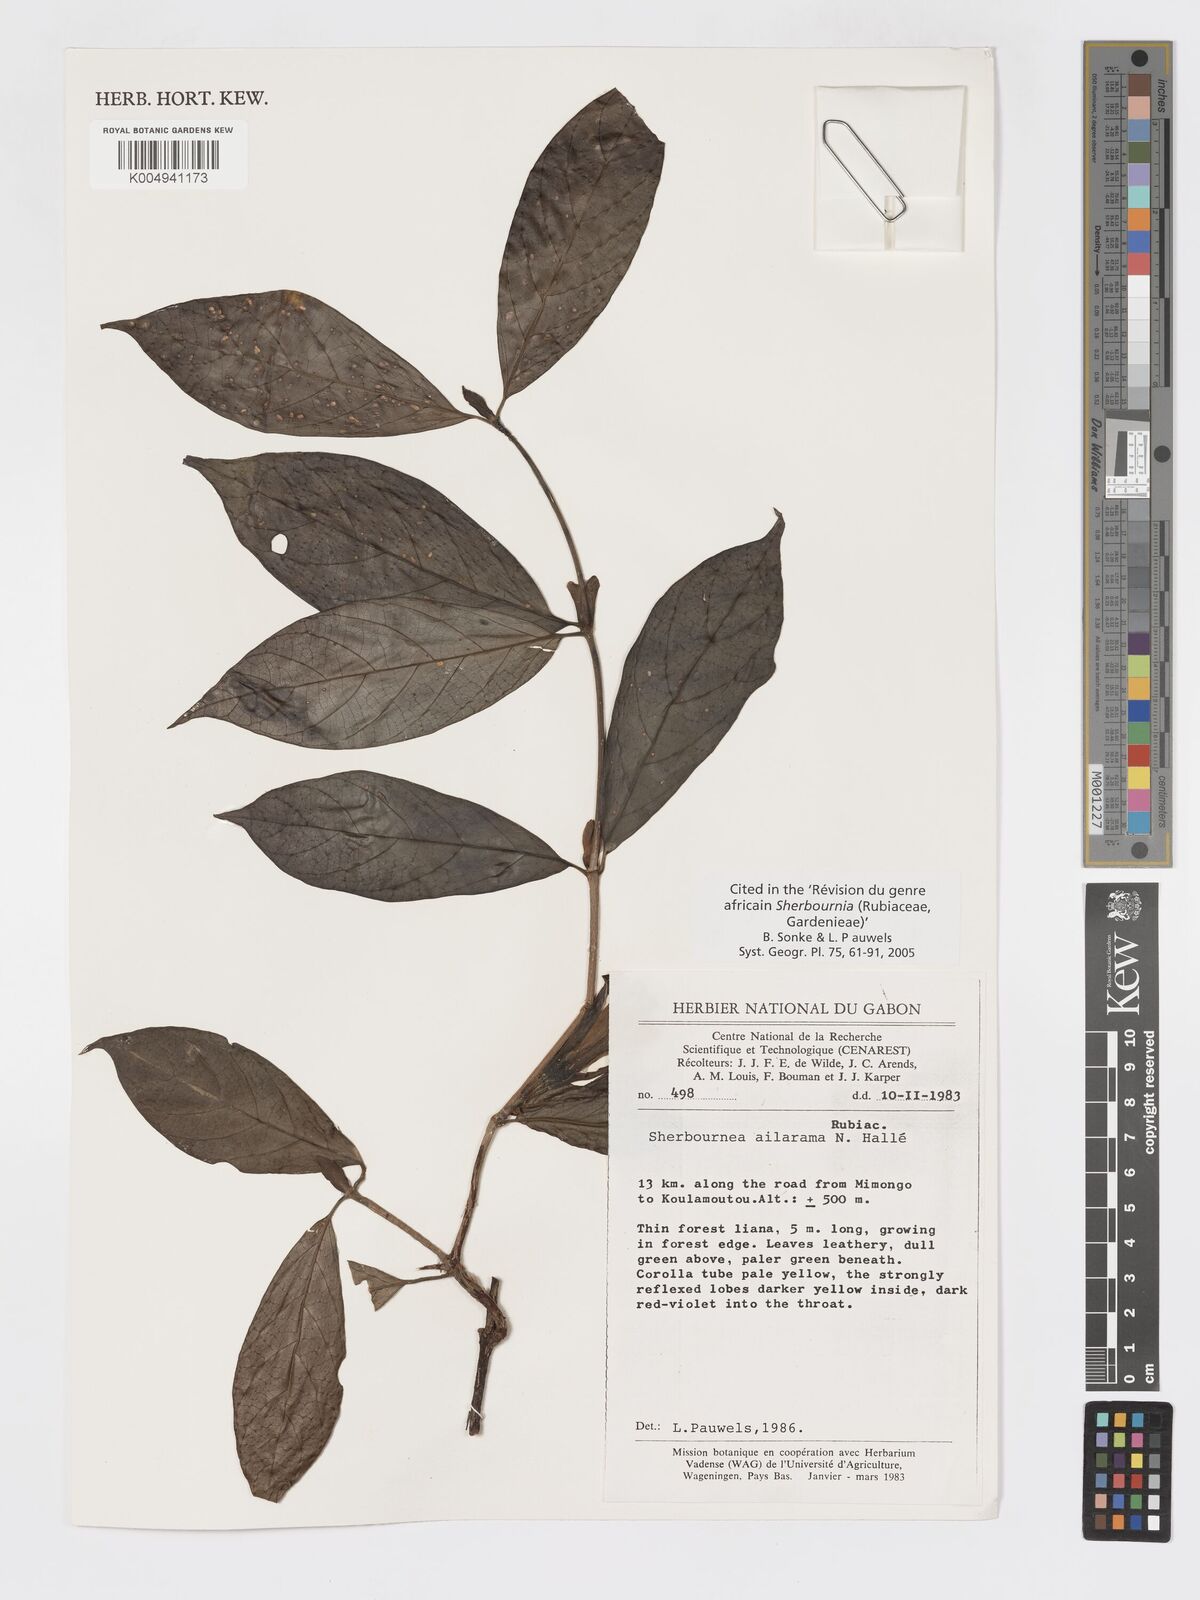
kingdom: Plantae
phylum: Tracheophyta
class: Magnoliopsida
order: Gentianales
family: Rubiaceae
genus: Sherbournia
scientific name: Sherbournia ailarama
